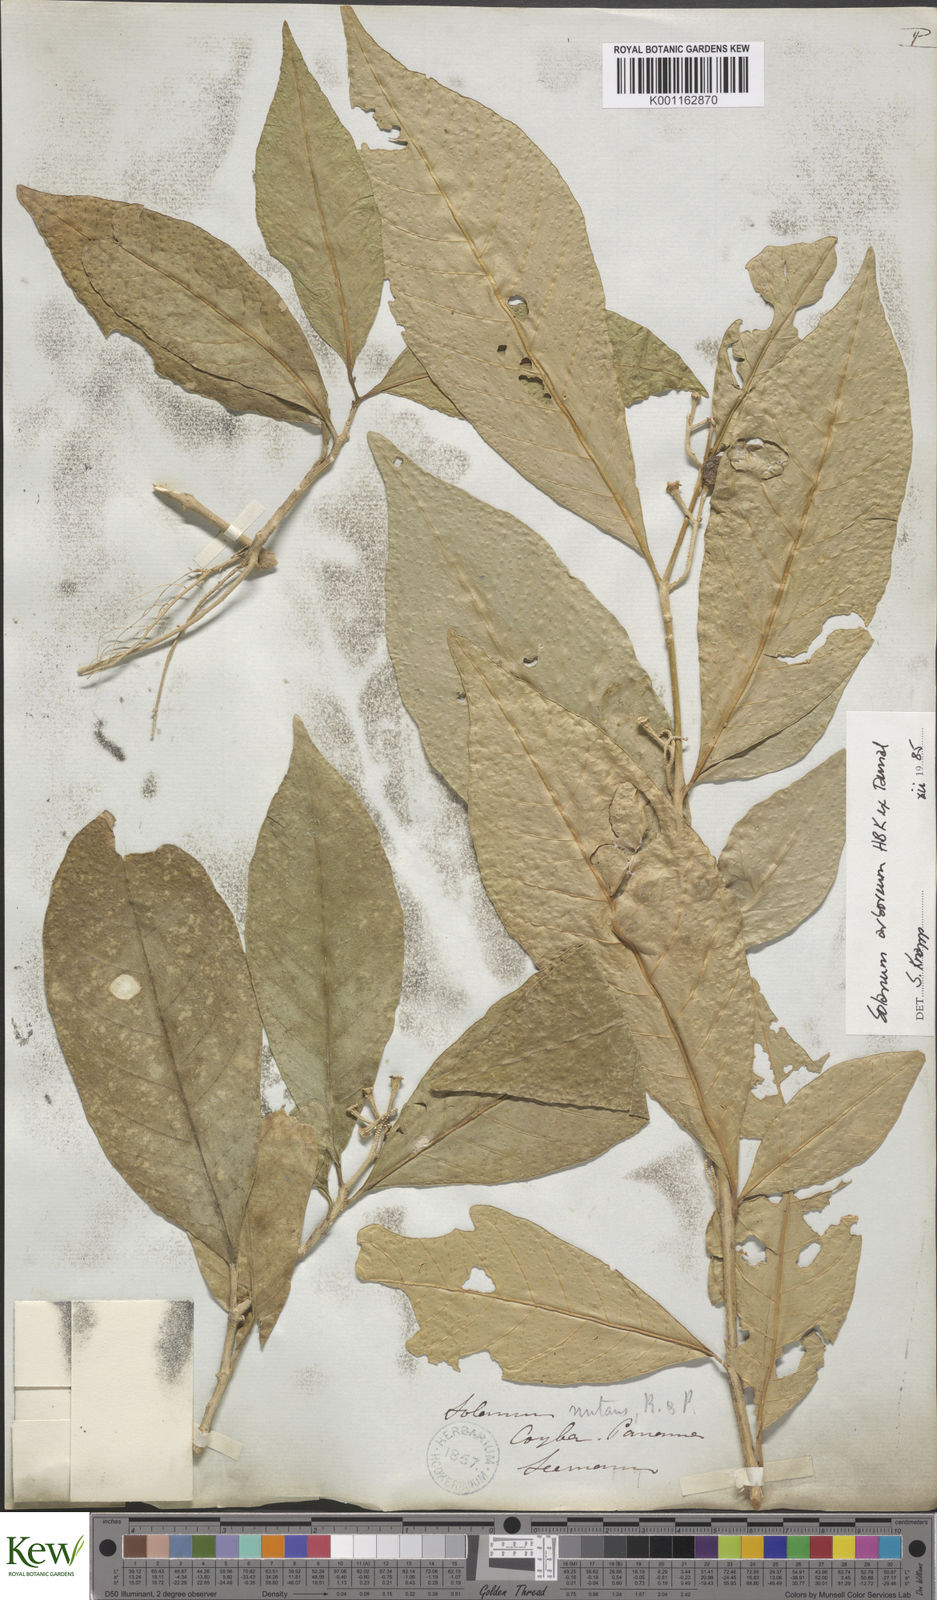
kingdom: Plantae
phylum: Tracheophyta
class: Magnoliopsida
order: Solanales
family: Solanaceae
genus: Solanum
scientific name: Solanum arboreum
